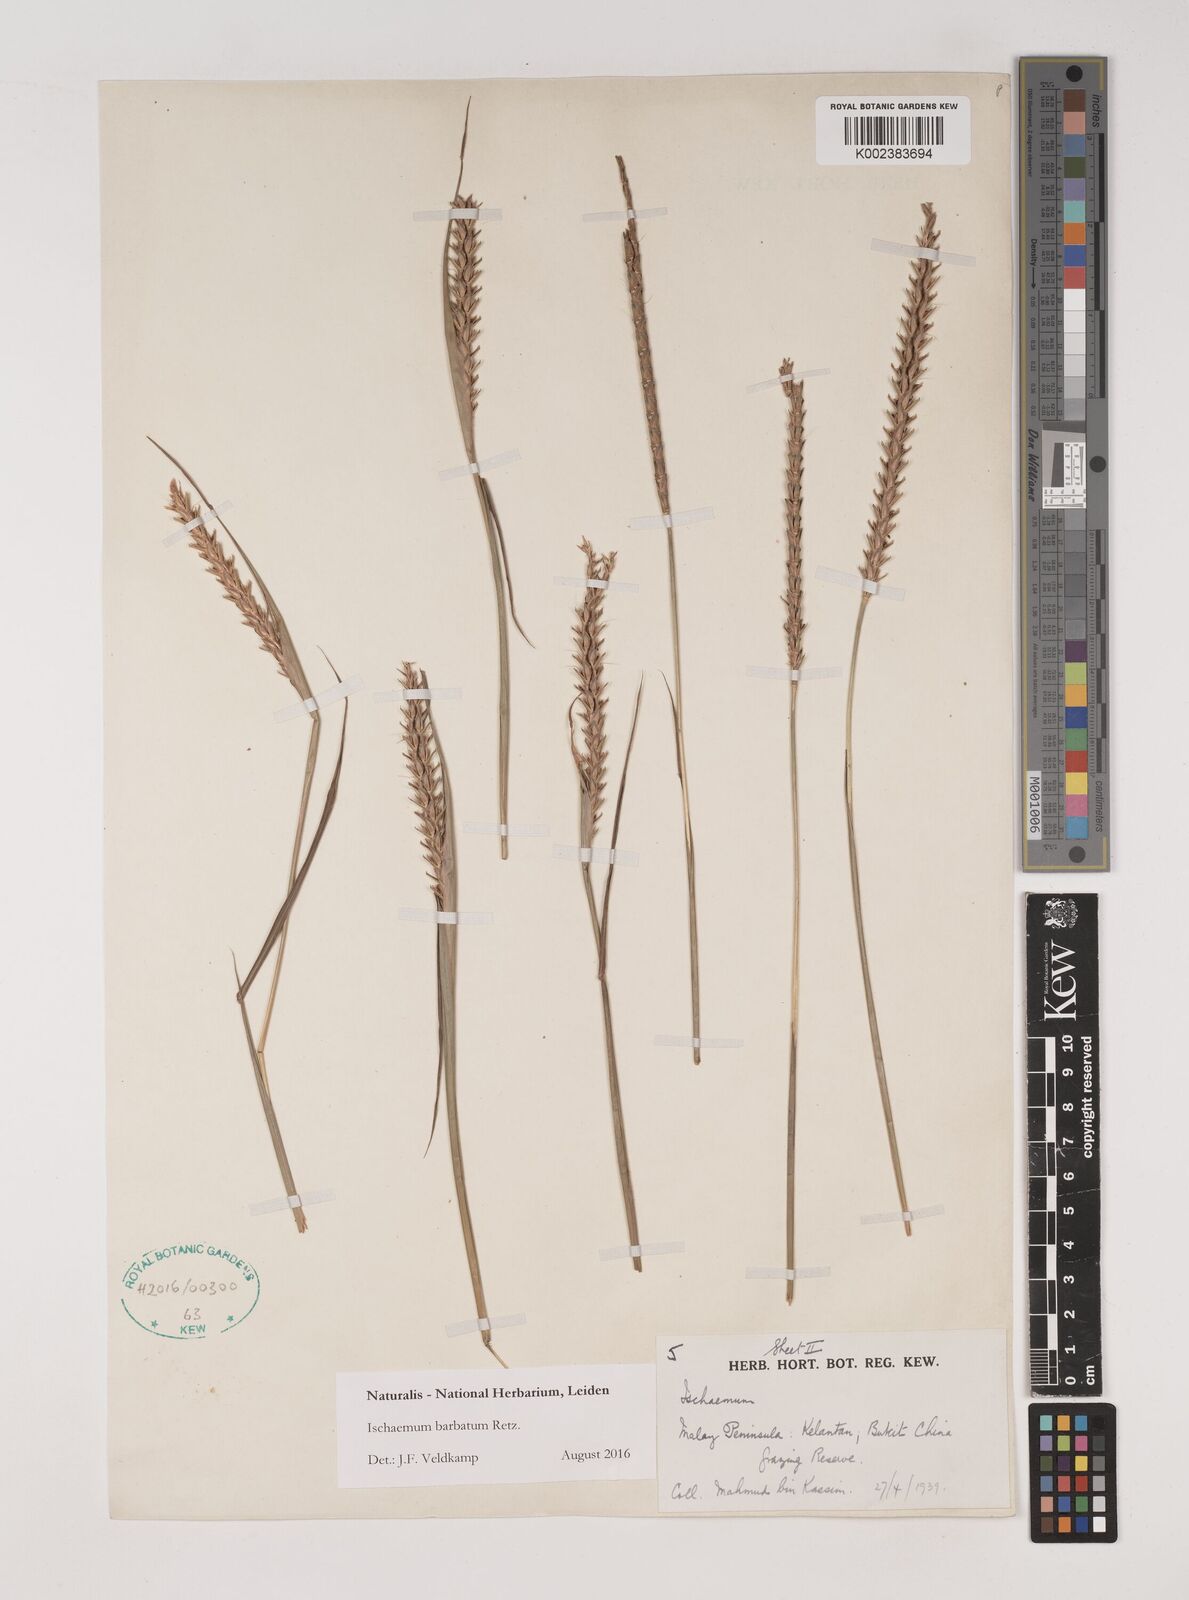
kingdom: Plantae
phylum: Tracheophyta
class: Liliopsida
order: Poales
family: Poaceae
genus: Ischaemum
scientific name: Ischaemum barbatum
